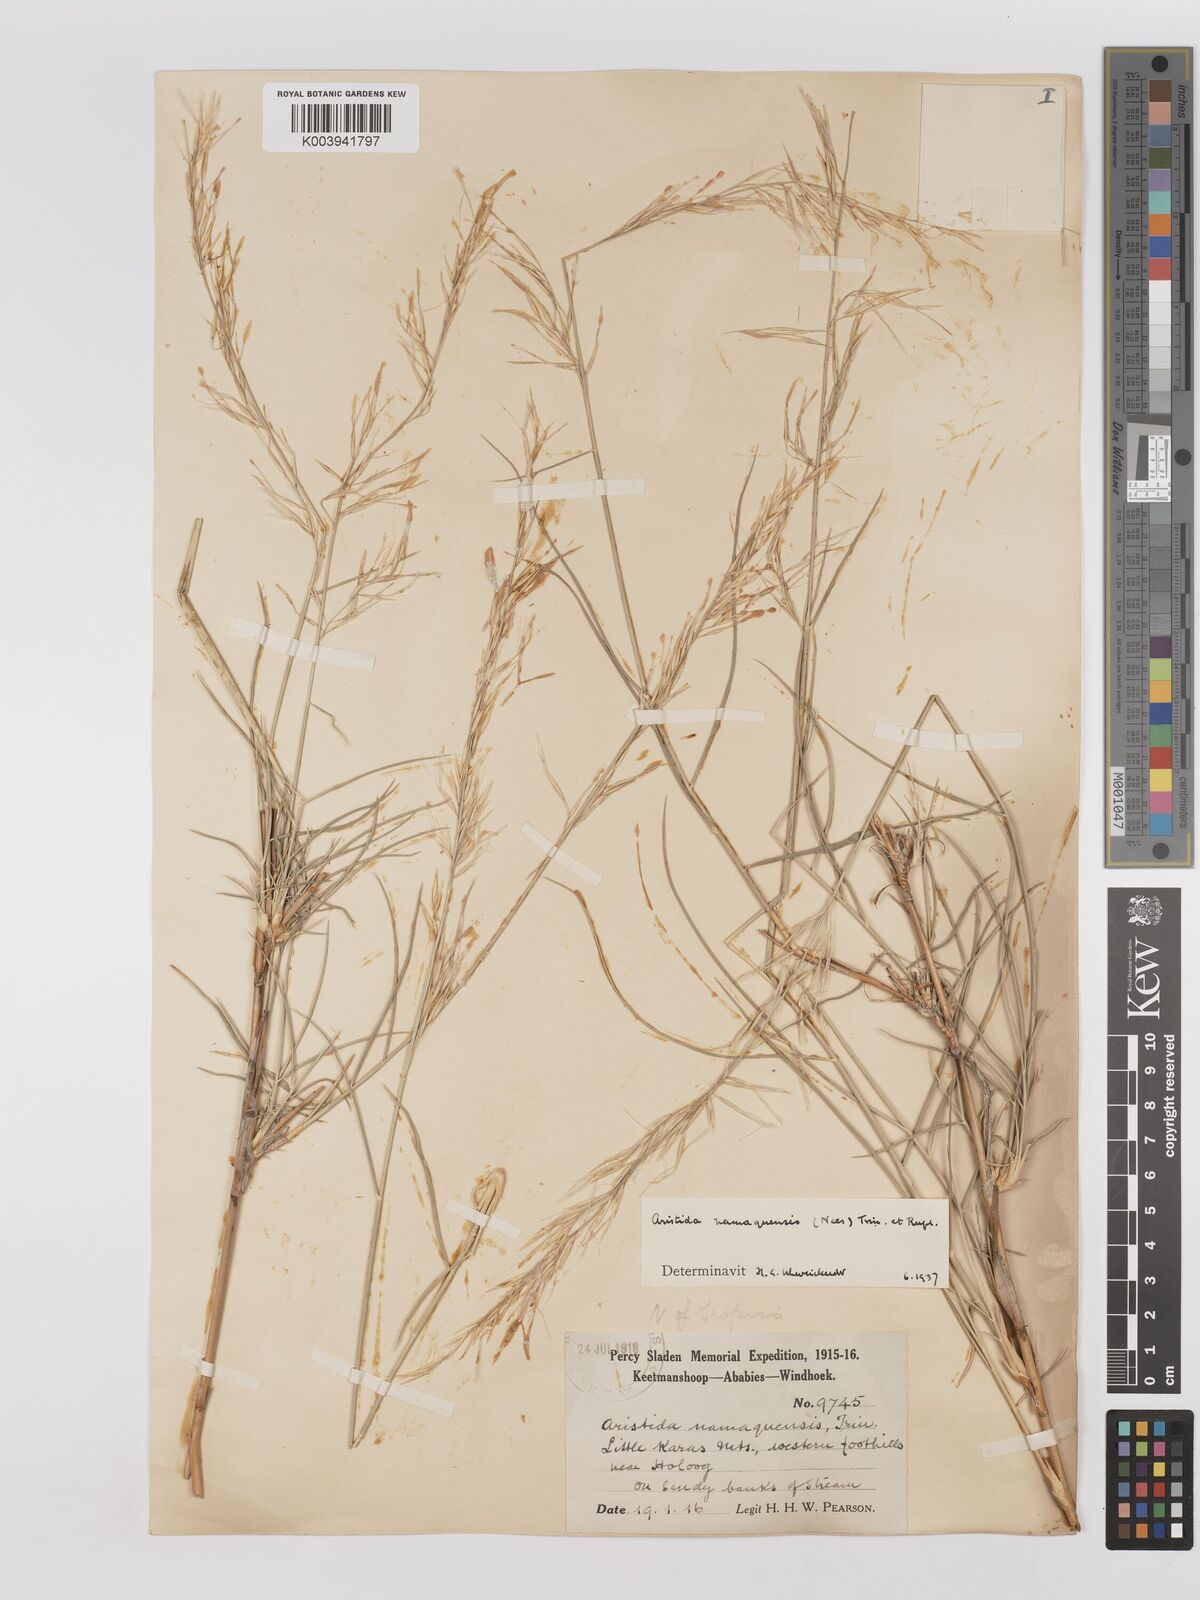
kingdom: Plantae
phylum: Tracheophyta
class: Liliopsida
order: Poales
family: Poaceae
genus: Stipagrostis
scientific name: Stipagrostis namaquensis
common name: River bushman grass
